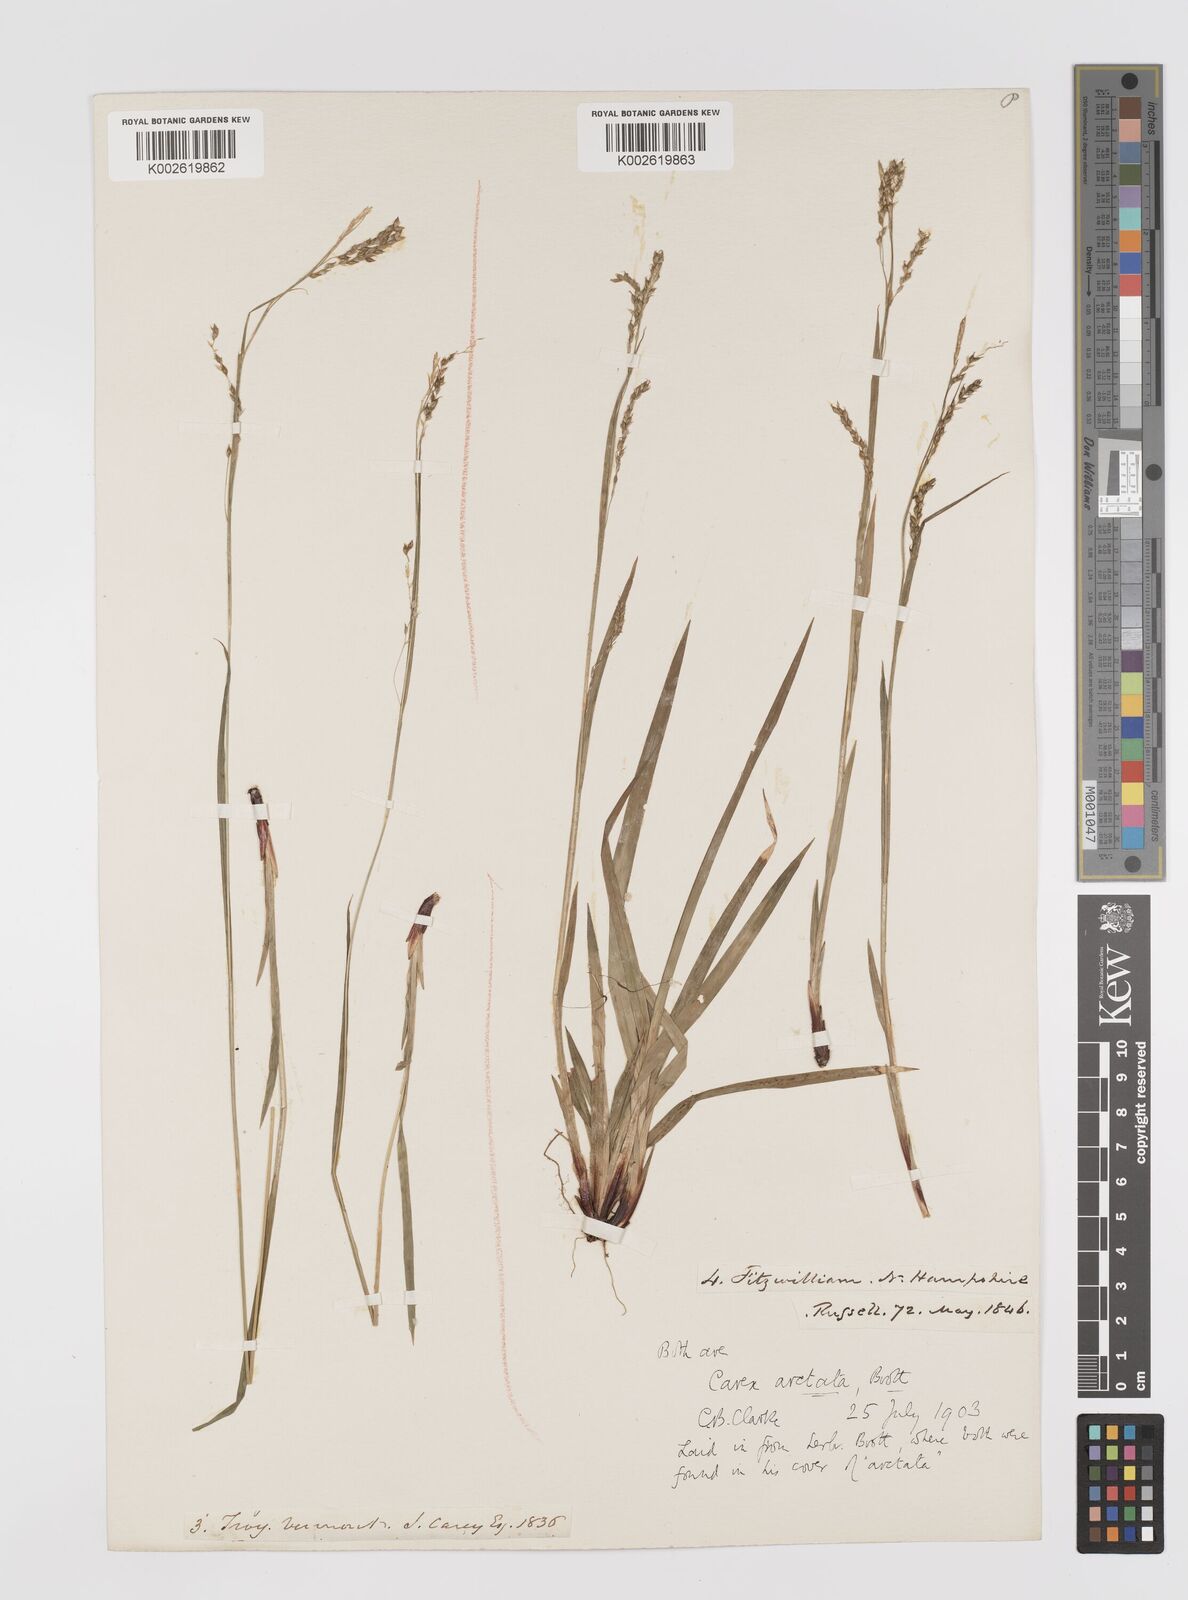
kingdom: Plantae
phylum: Tracheophyta
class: Liliopsida
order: Poales
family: Cyperaceae
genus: Carex
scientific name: Carex arctata
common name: Black sedge
